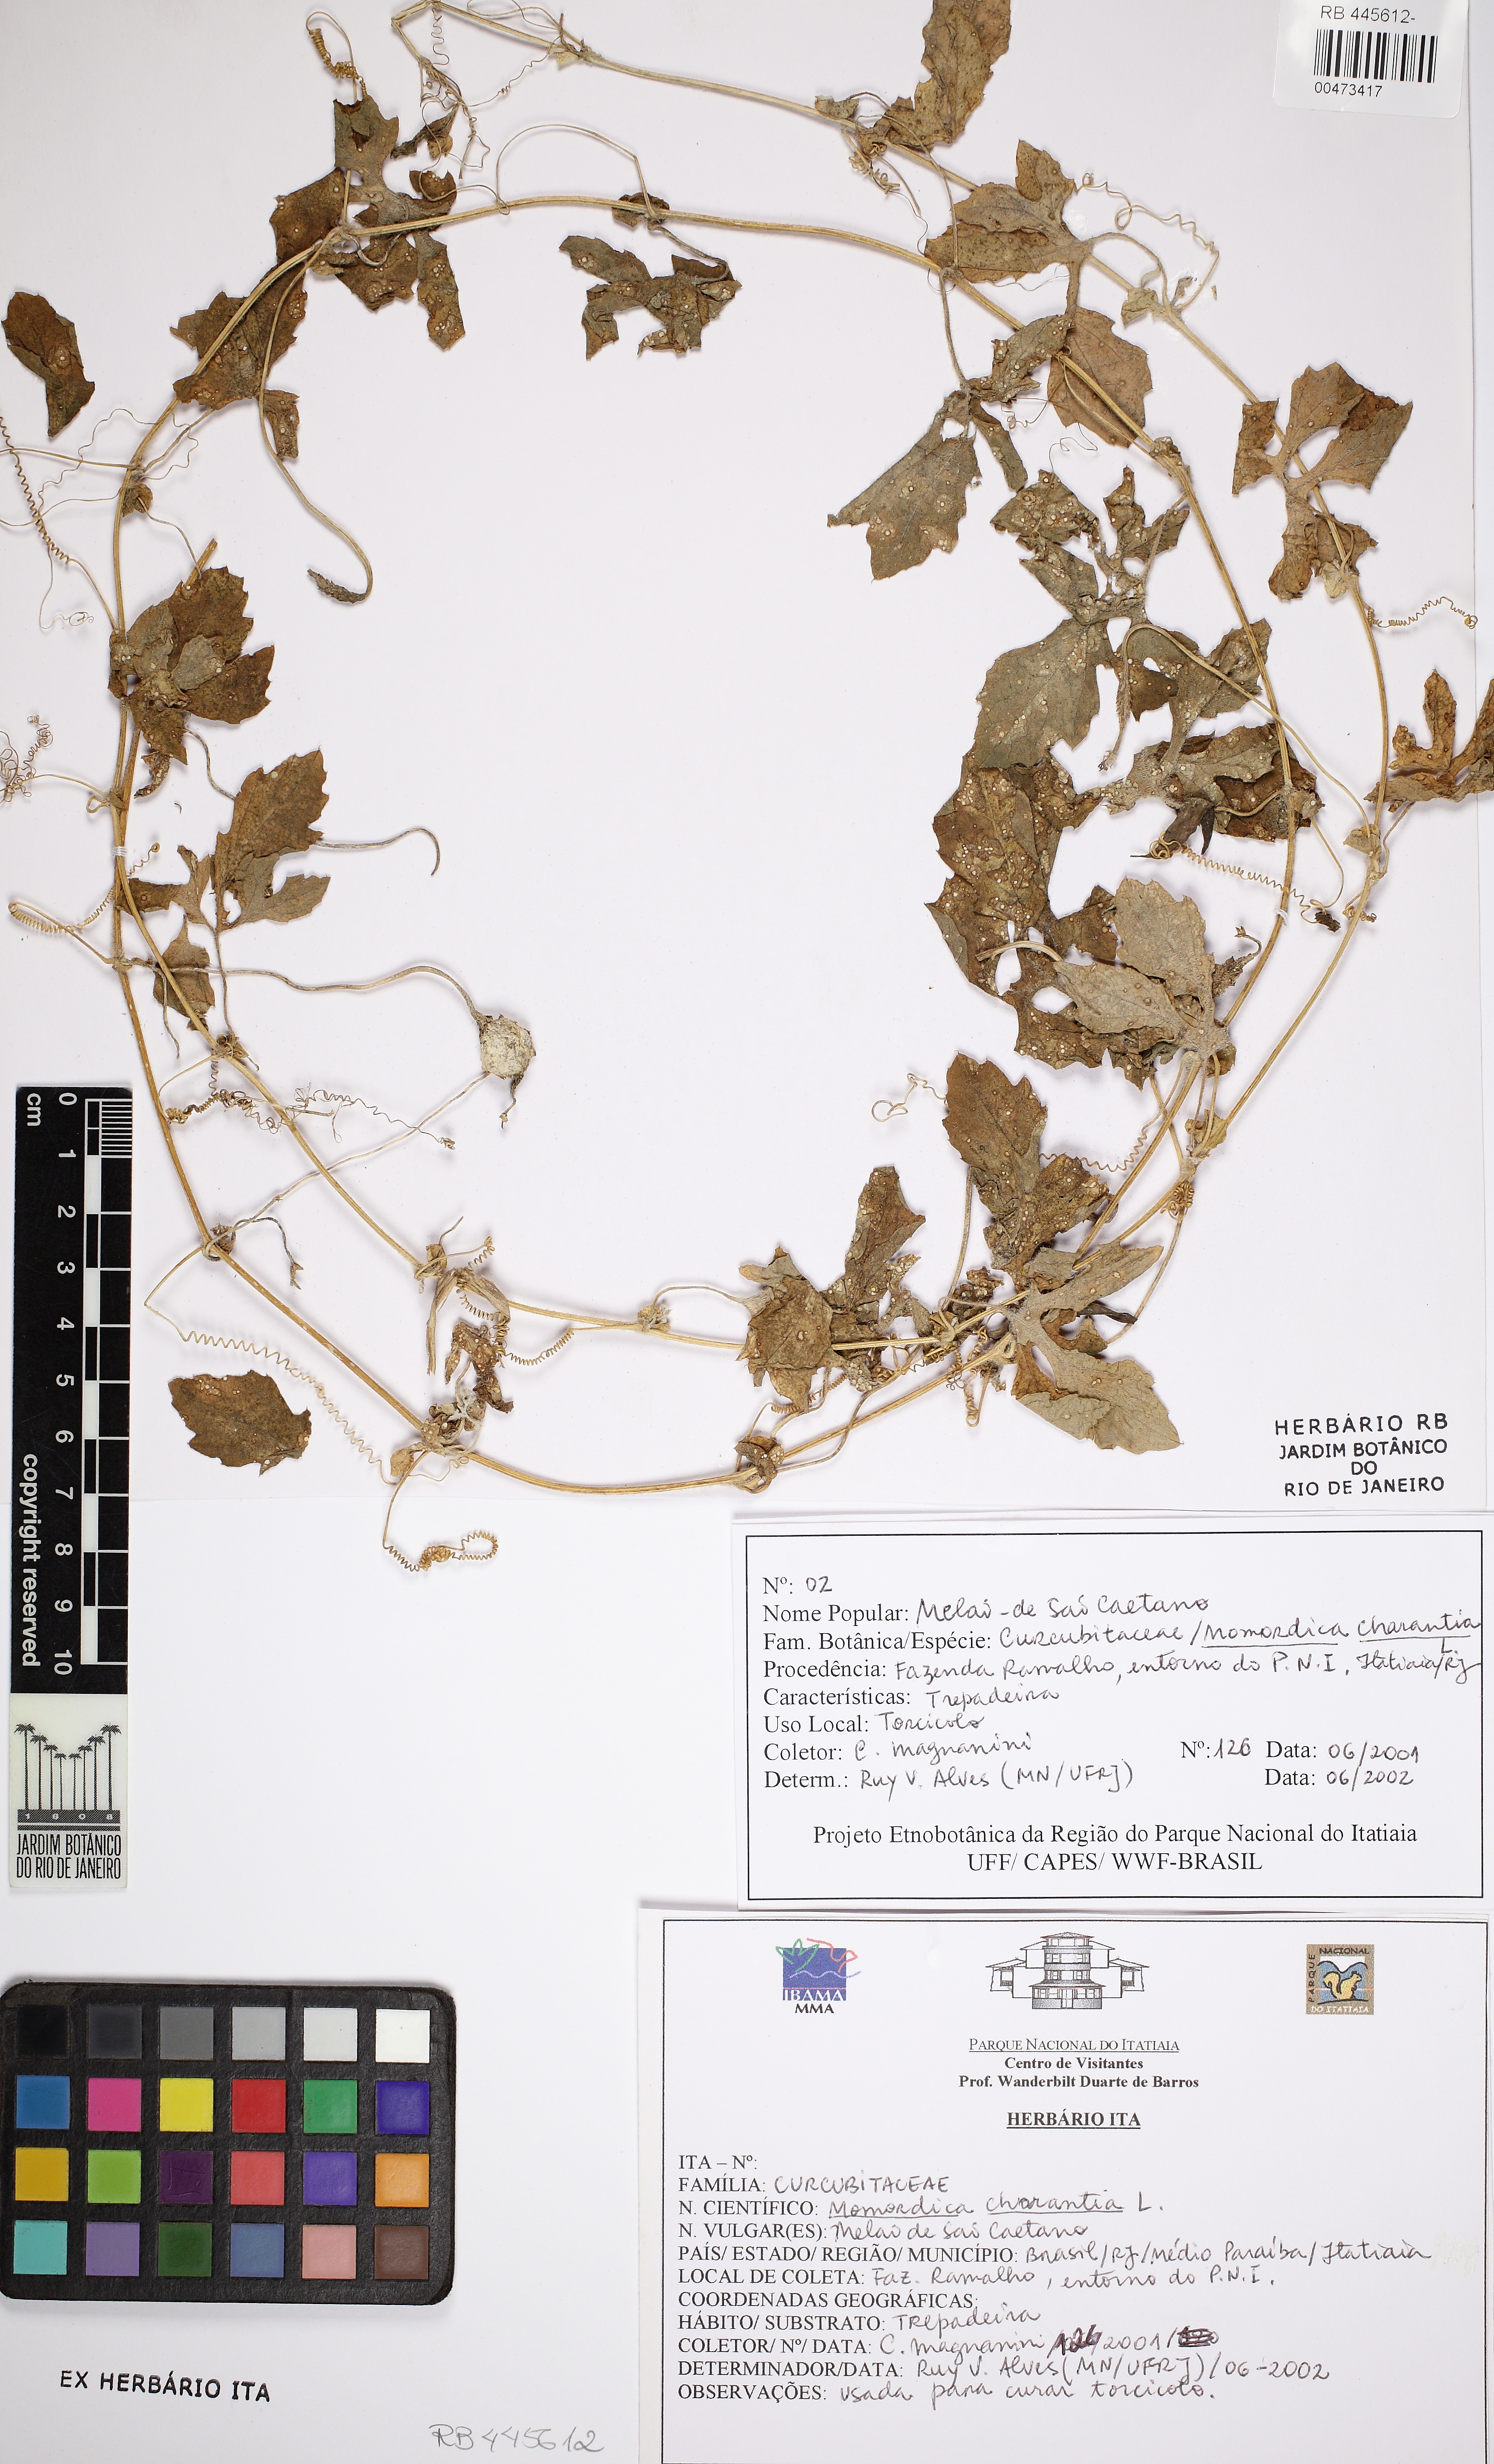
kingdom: Plantae
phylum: Tracheophyta
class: Magnoliopsida
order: Cucurbitales
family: Cucurbitaceae
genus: Momordica
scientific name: Momordica charantia
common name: Balsampear
